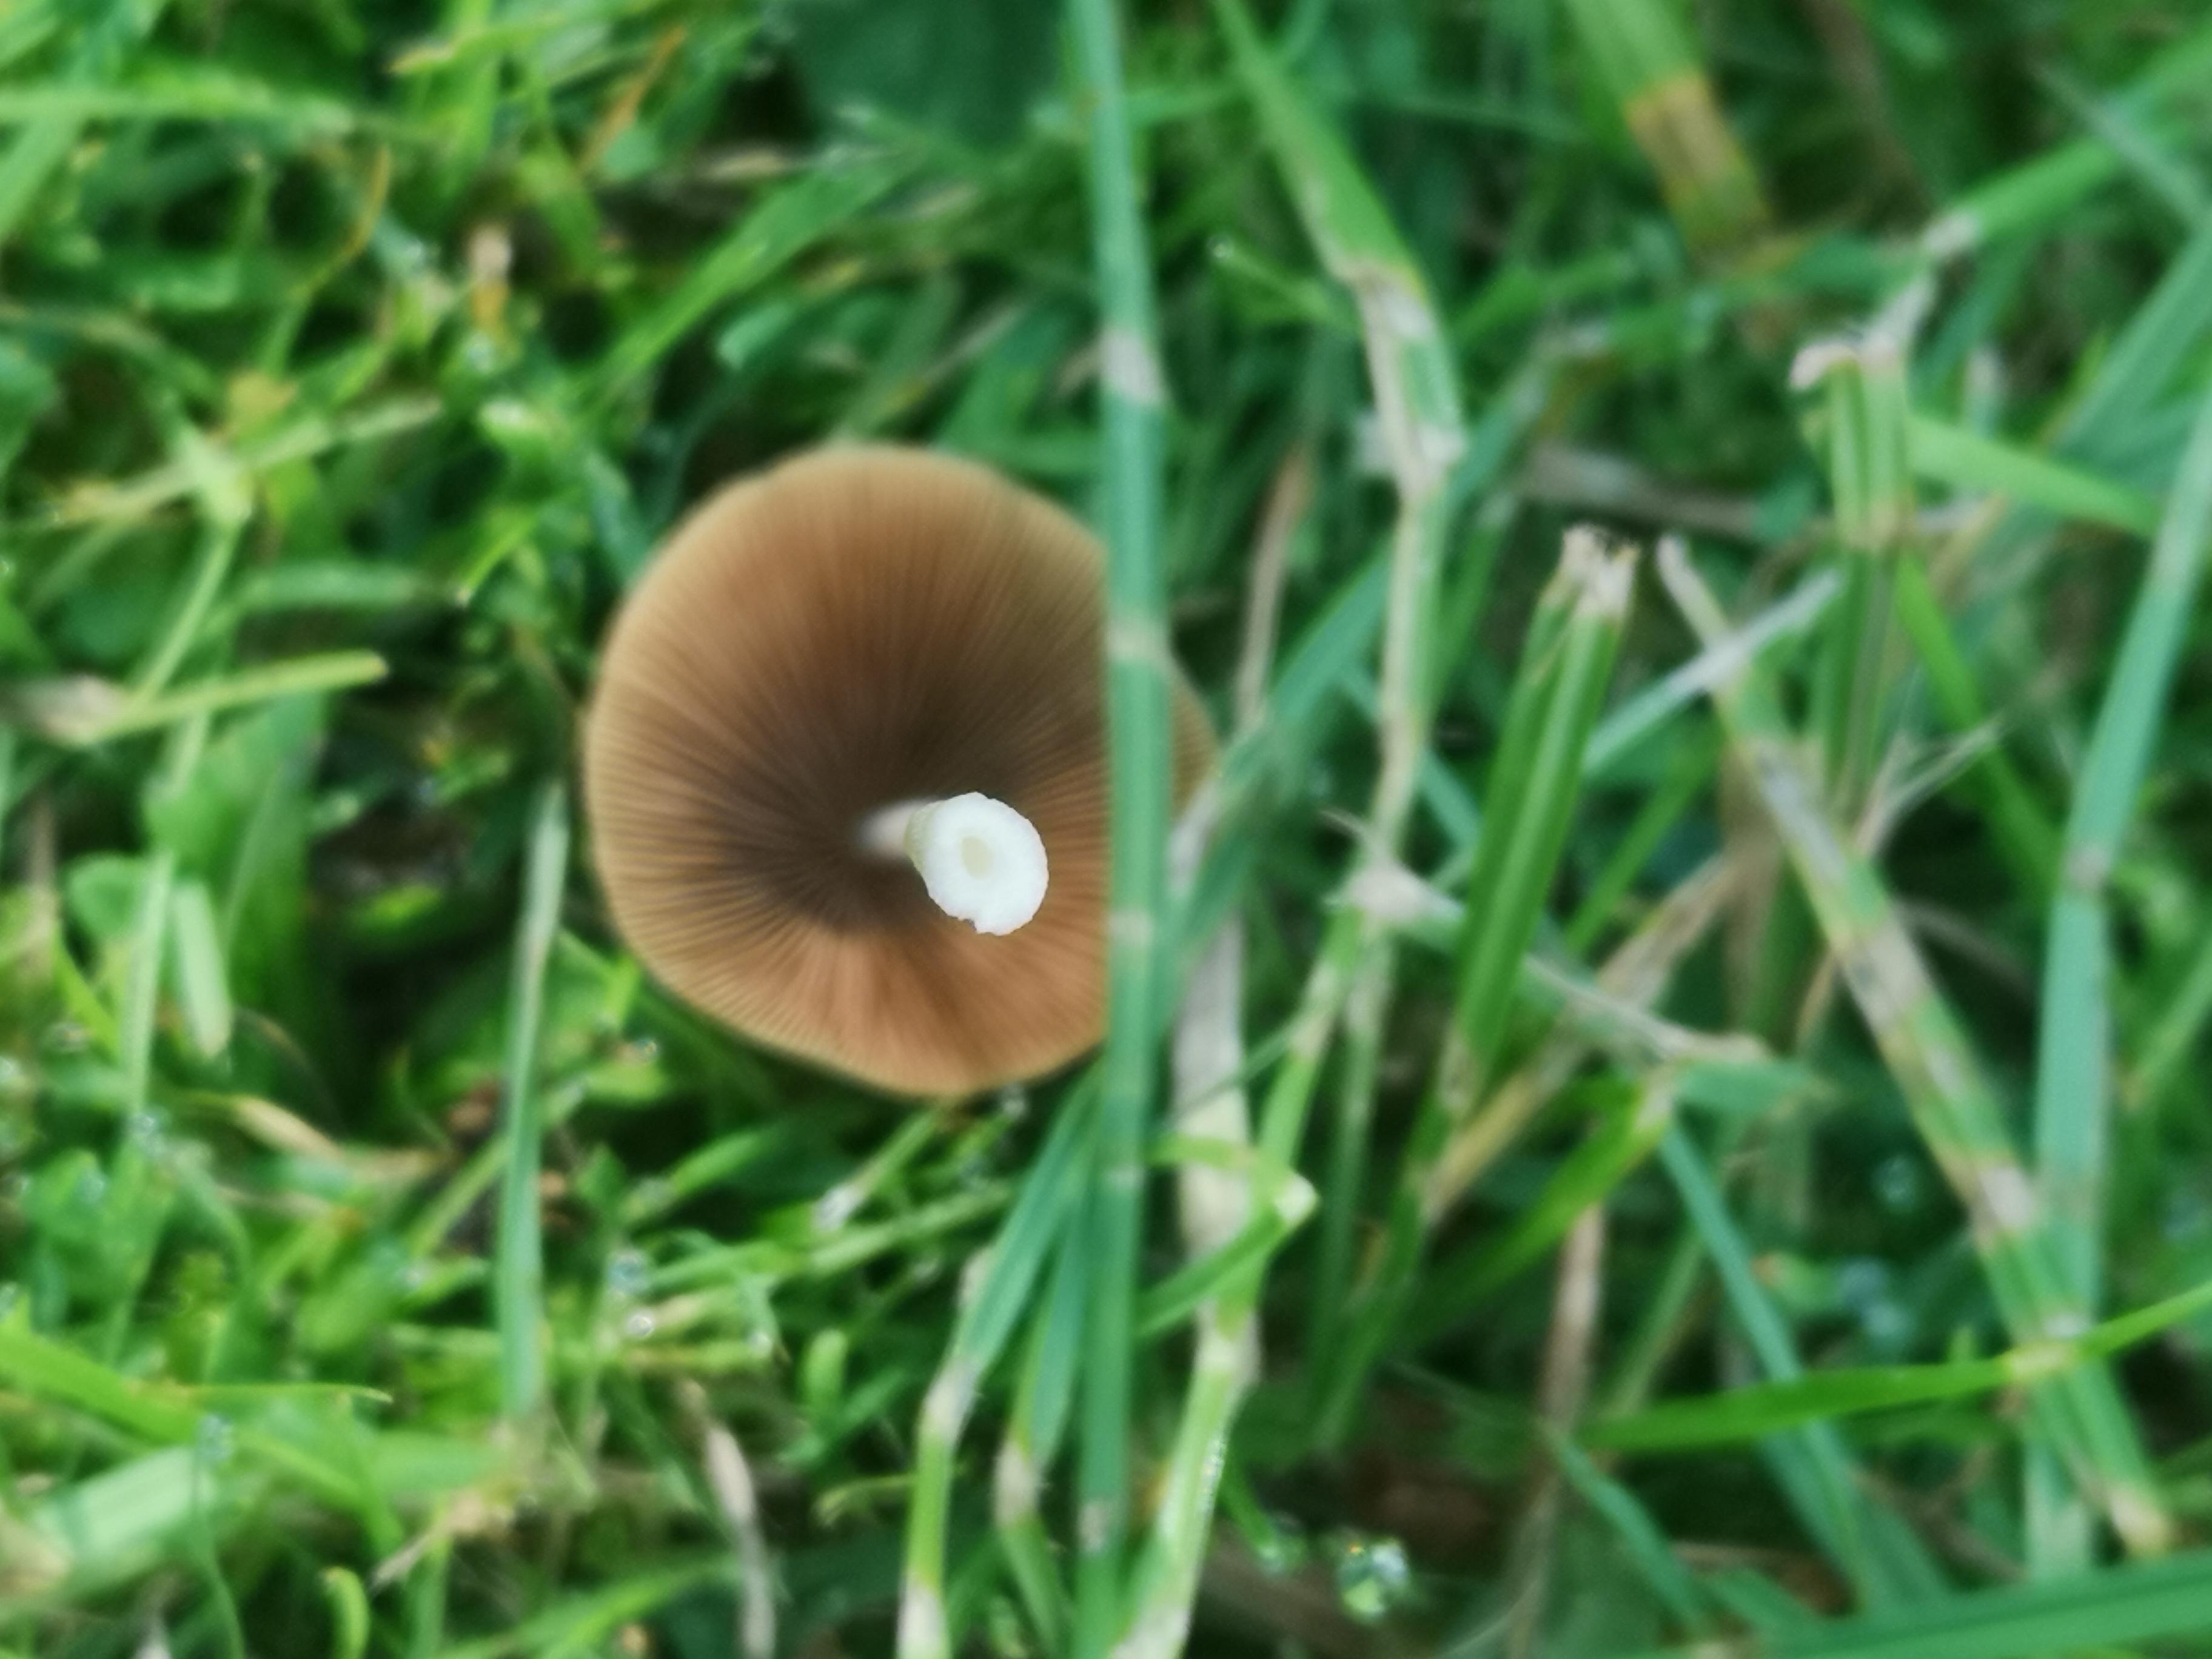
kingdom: Fungi
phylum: Basidiomycota
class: Agaricomycetes
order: Agaricales
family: Bolbitiaceae
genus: Bolbitius
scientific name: Bolbitius titubans
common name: almindelig gulhat
